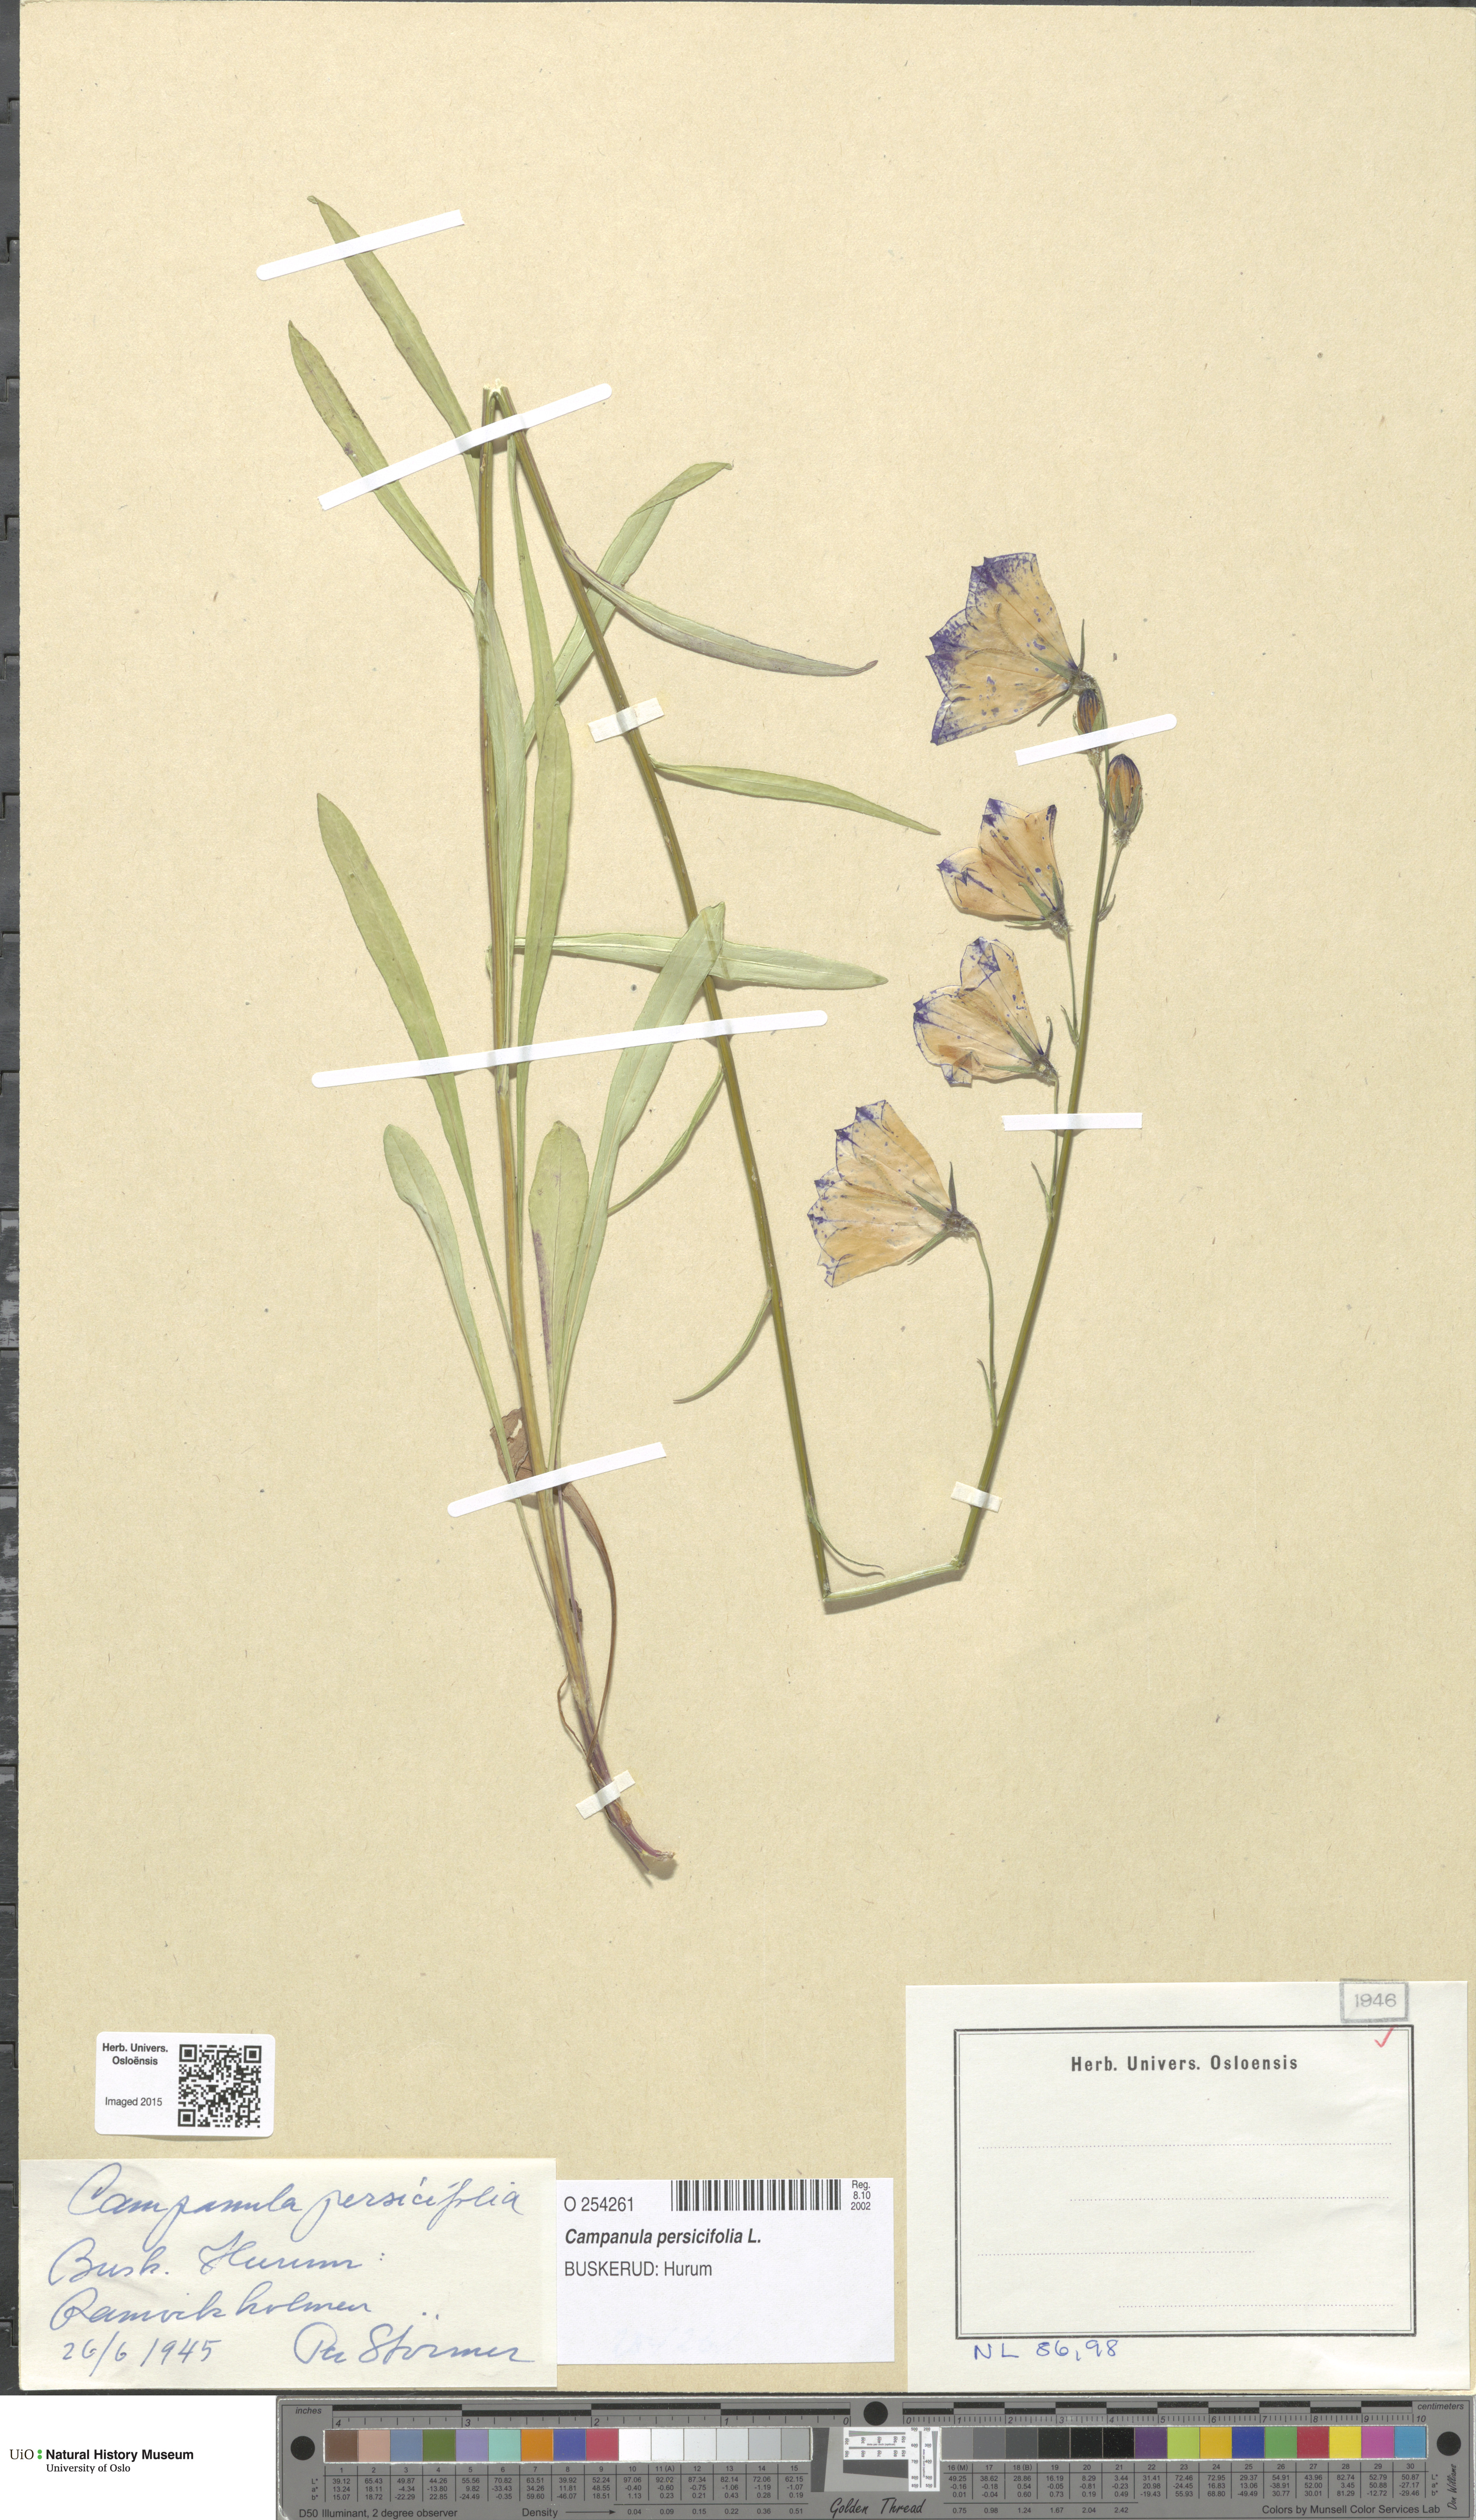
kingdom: Plantae
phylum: Tracheophyta
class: Magnoliopsida
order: Asterales
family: Campanulaceae
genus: Campanula
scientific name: Campanula persicifolia
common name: Peach-leaved bellflower
